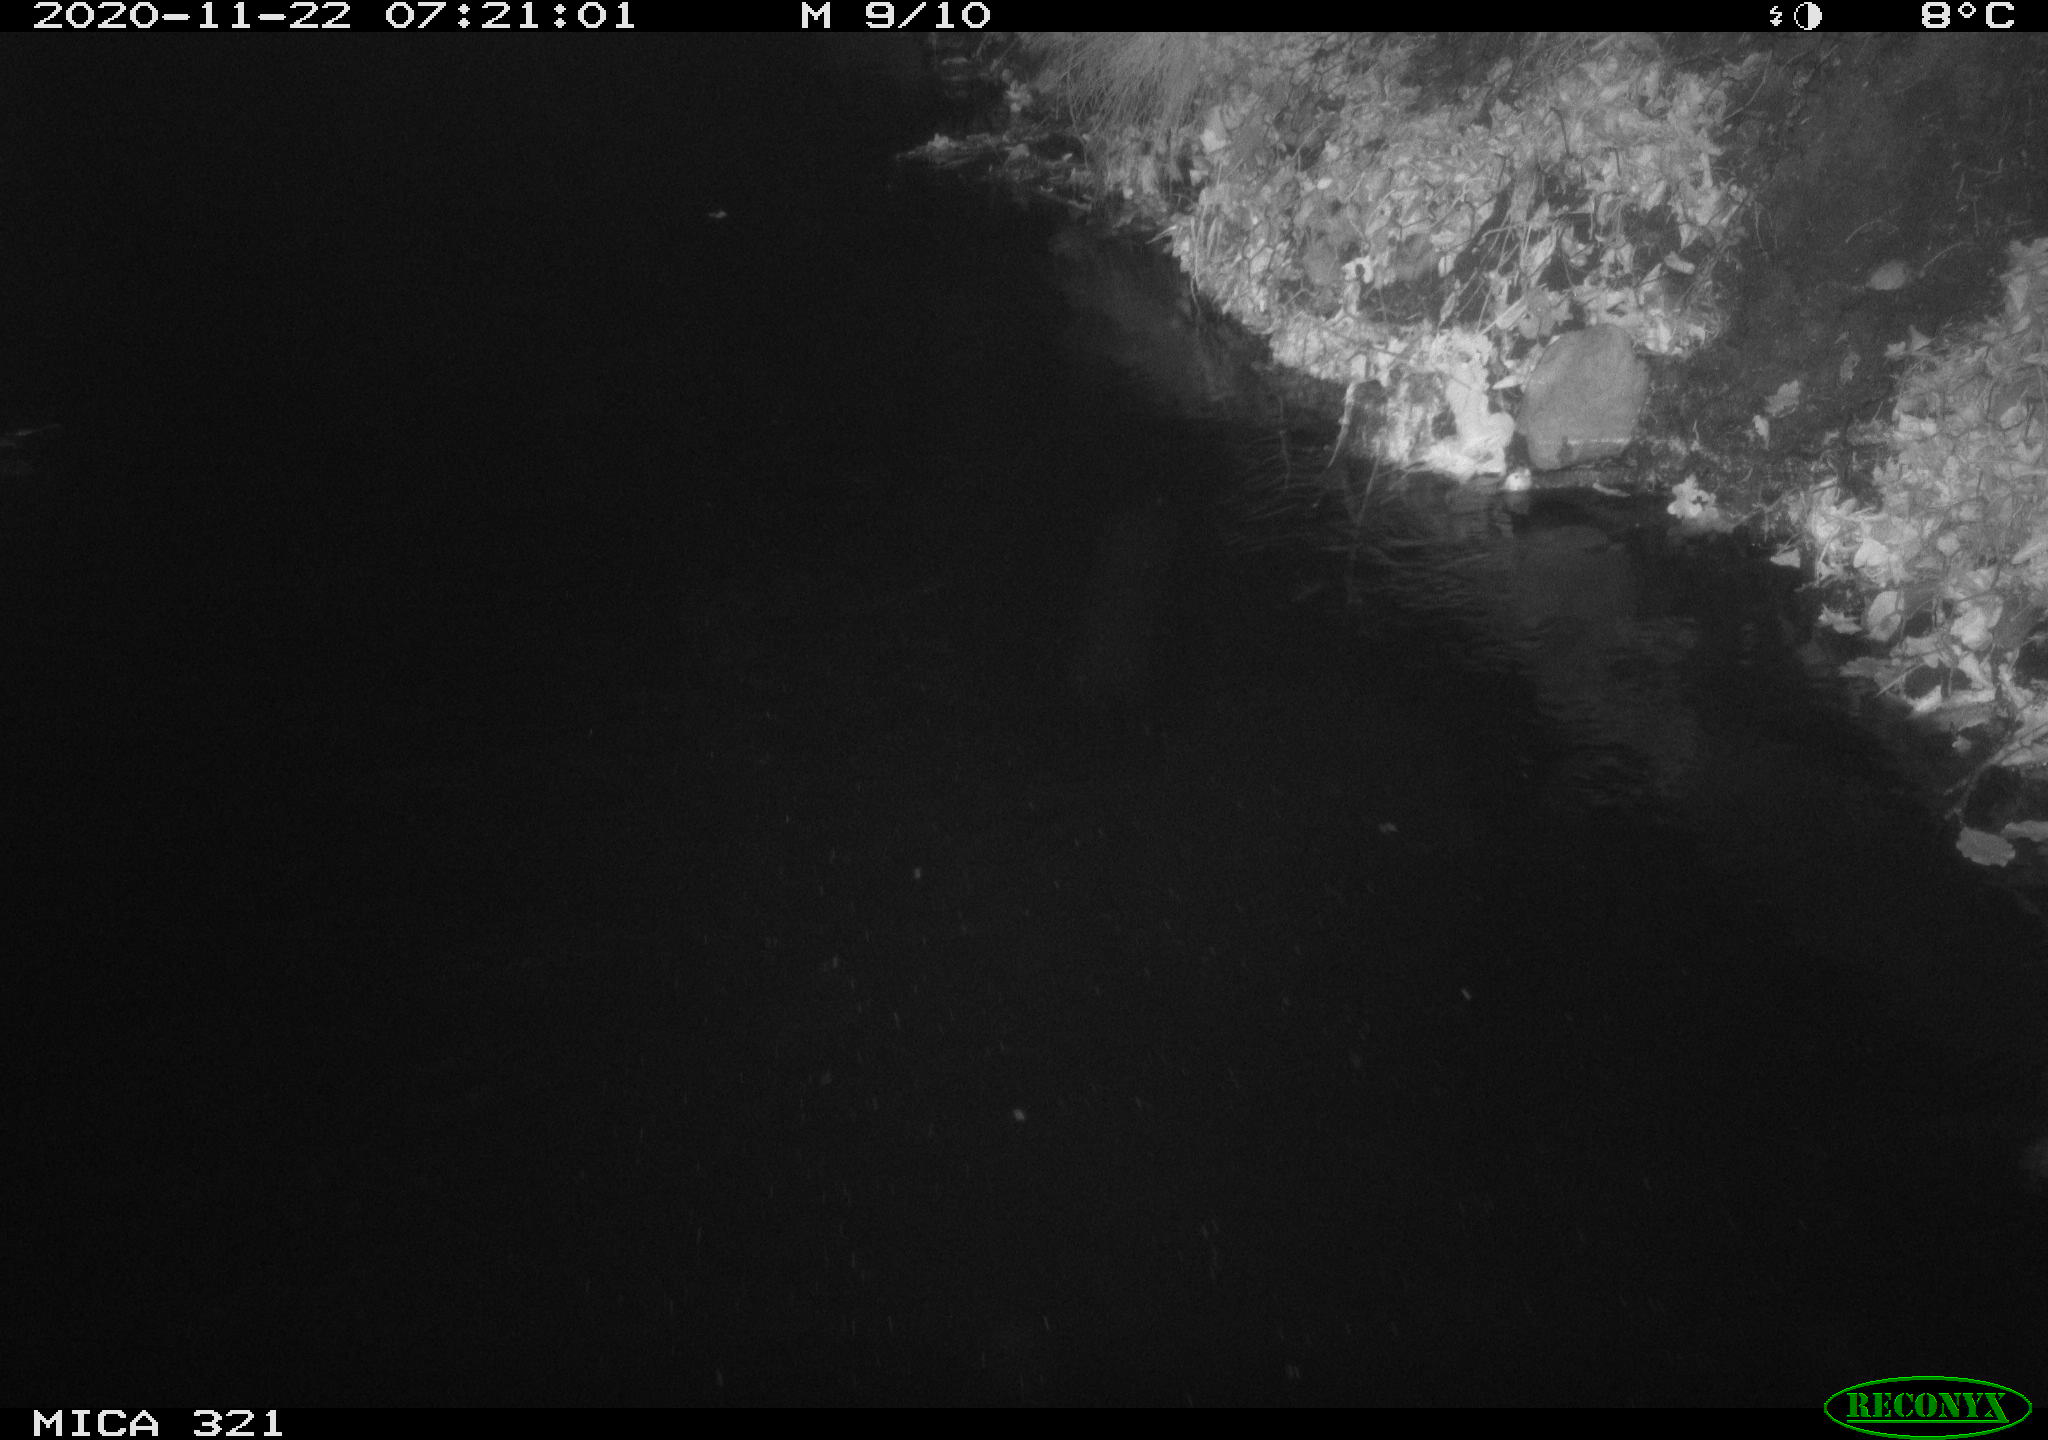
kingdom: Animalia
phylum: Chordata
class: Aves
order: Anseriformes
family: Anatidae
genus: Anas
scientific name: Anas platyrhynchos
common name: Mallard
